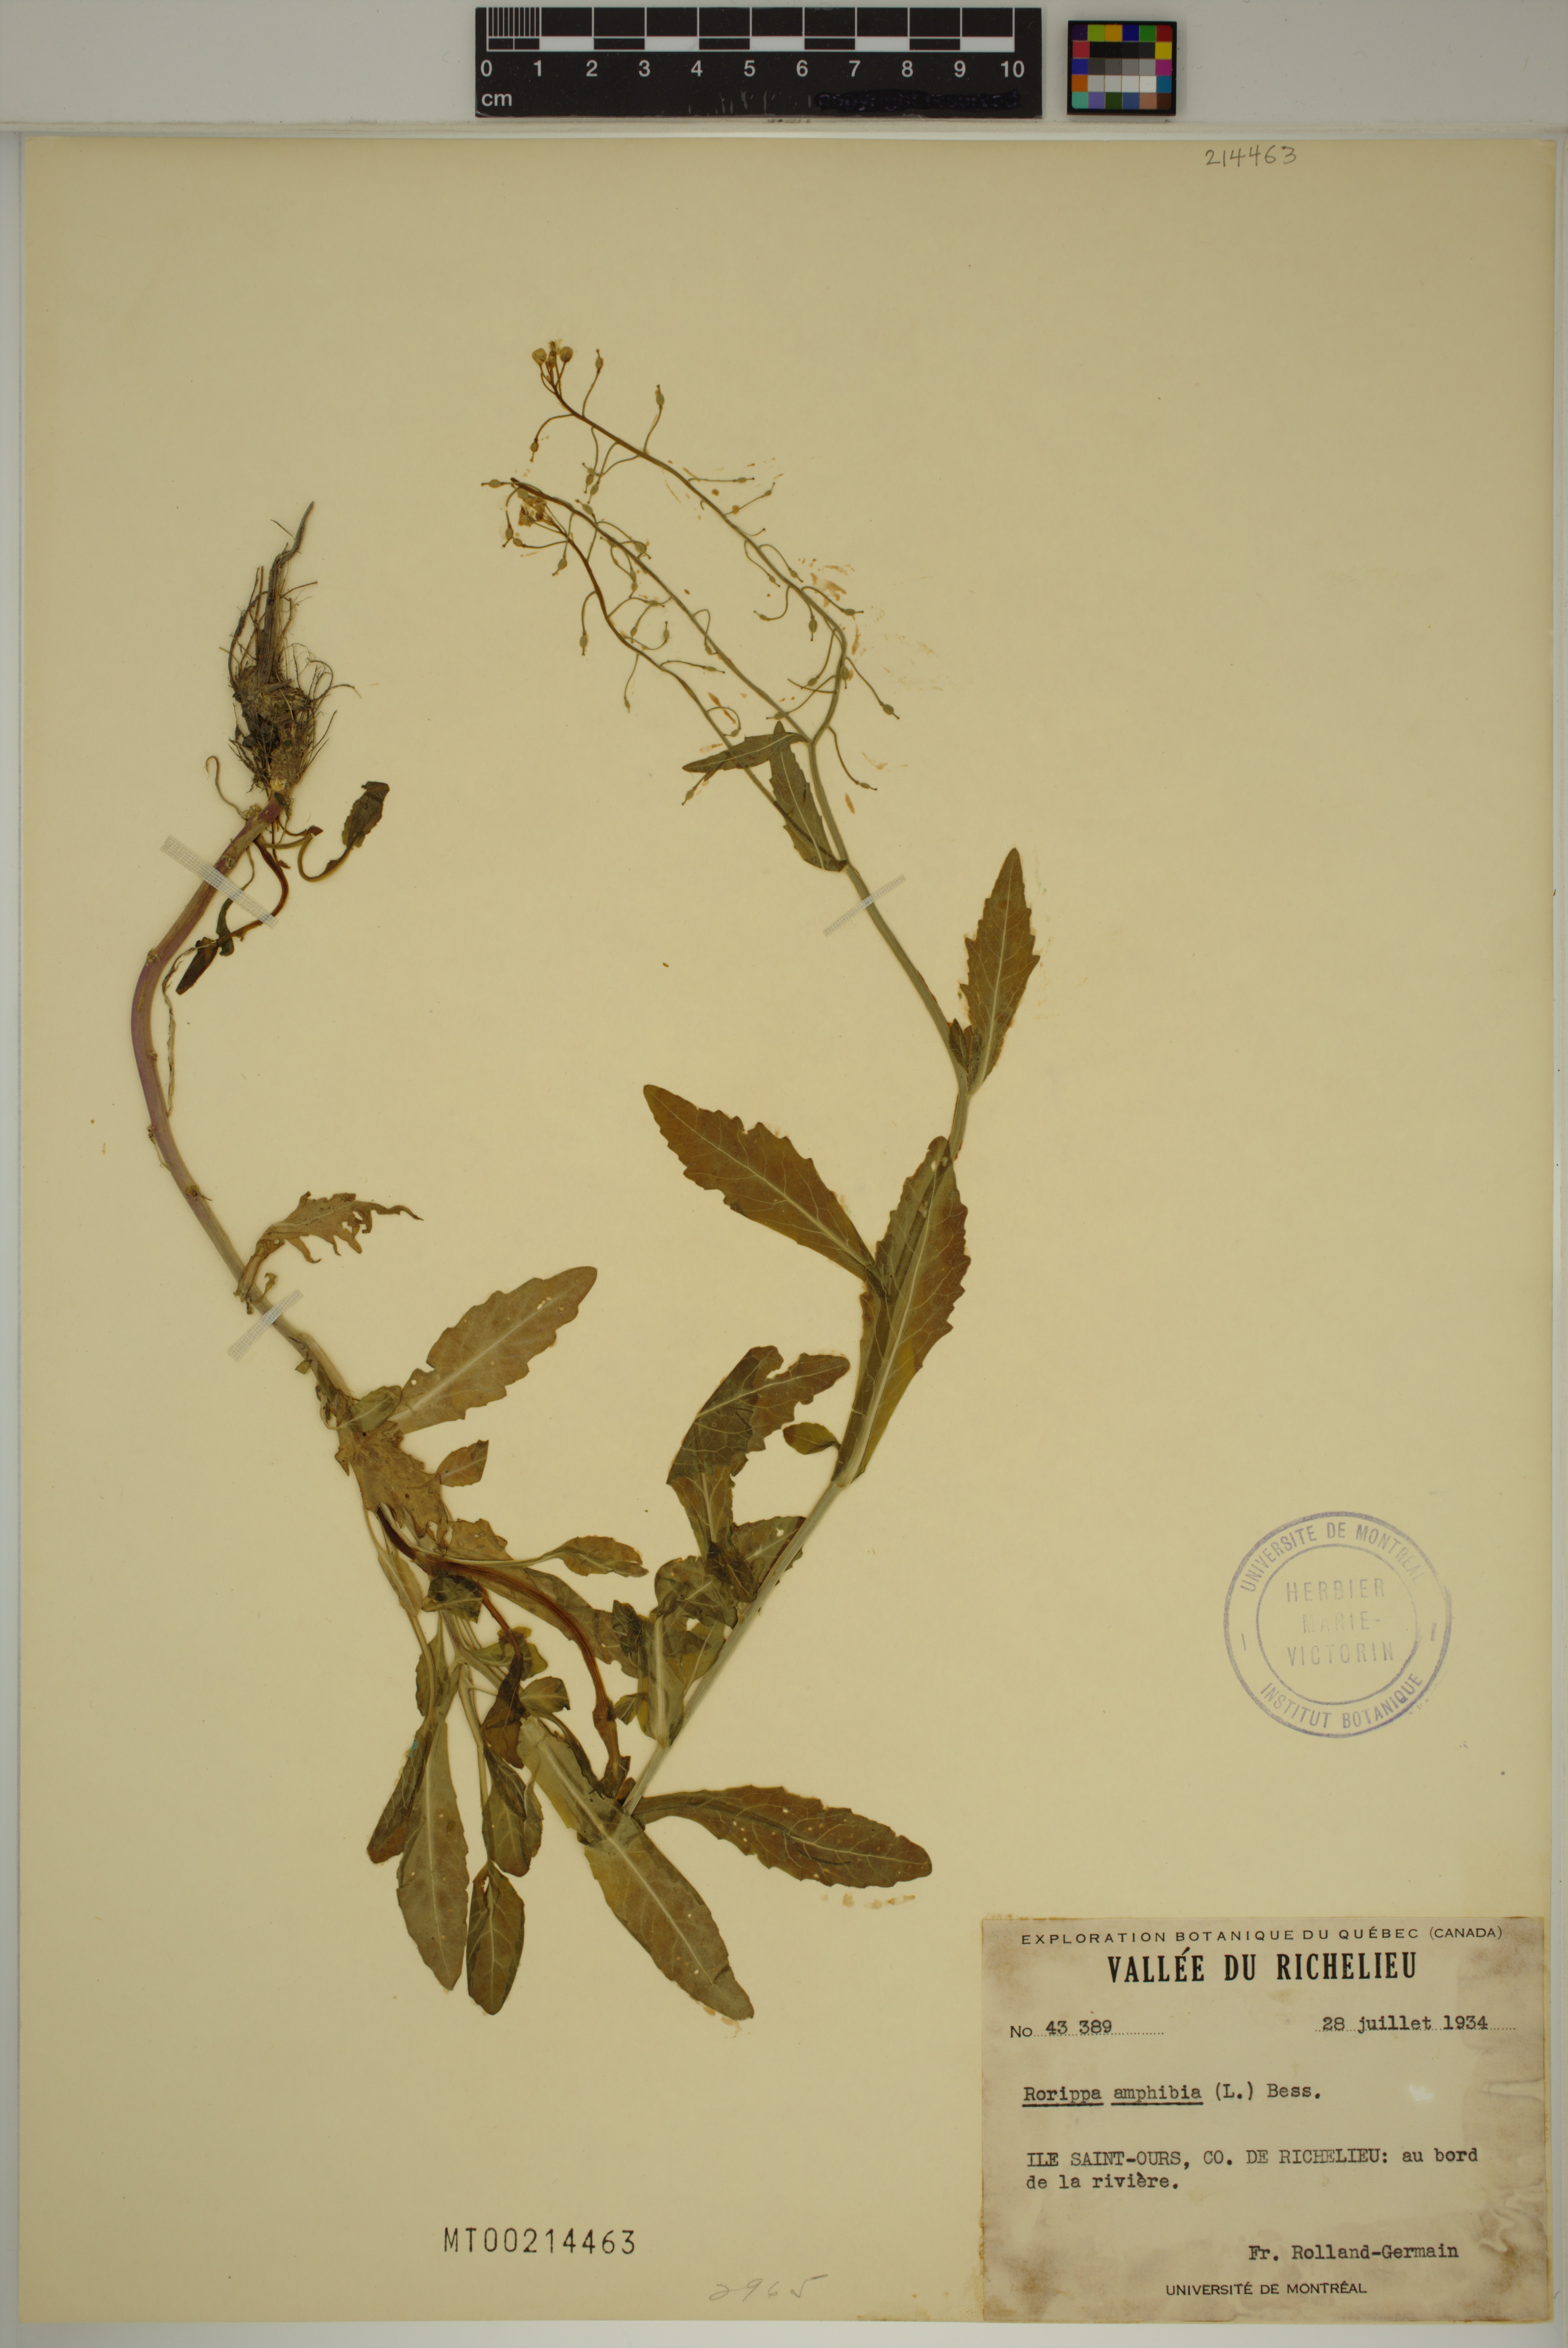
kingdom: Plantae
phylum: Tracheophyta
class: Magnoliopsida
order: Brassicales
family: Brassicaceae
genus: Rorippa
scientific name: Rorippa amphibia
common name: Great yellow-cress
